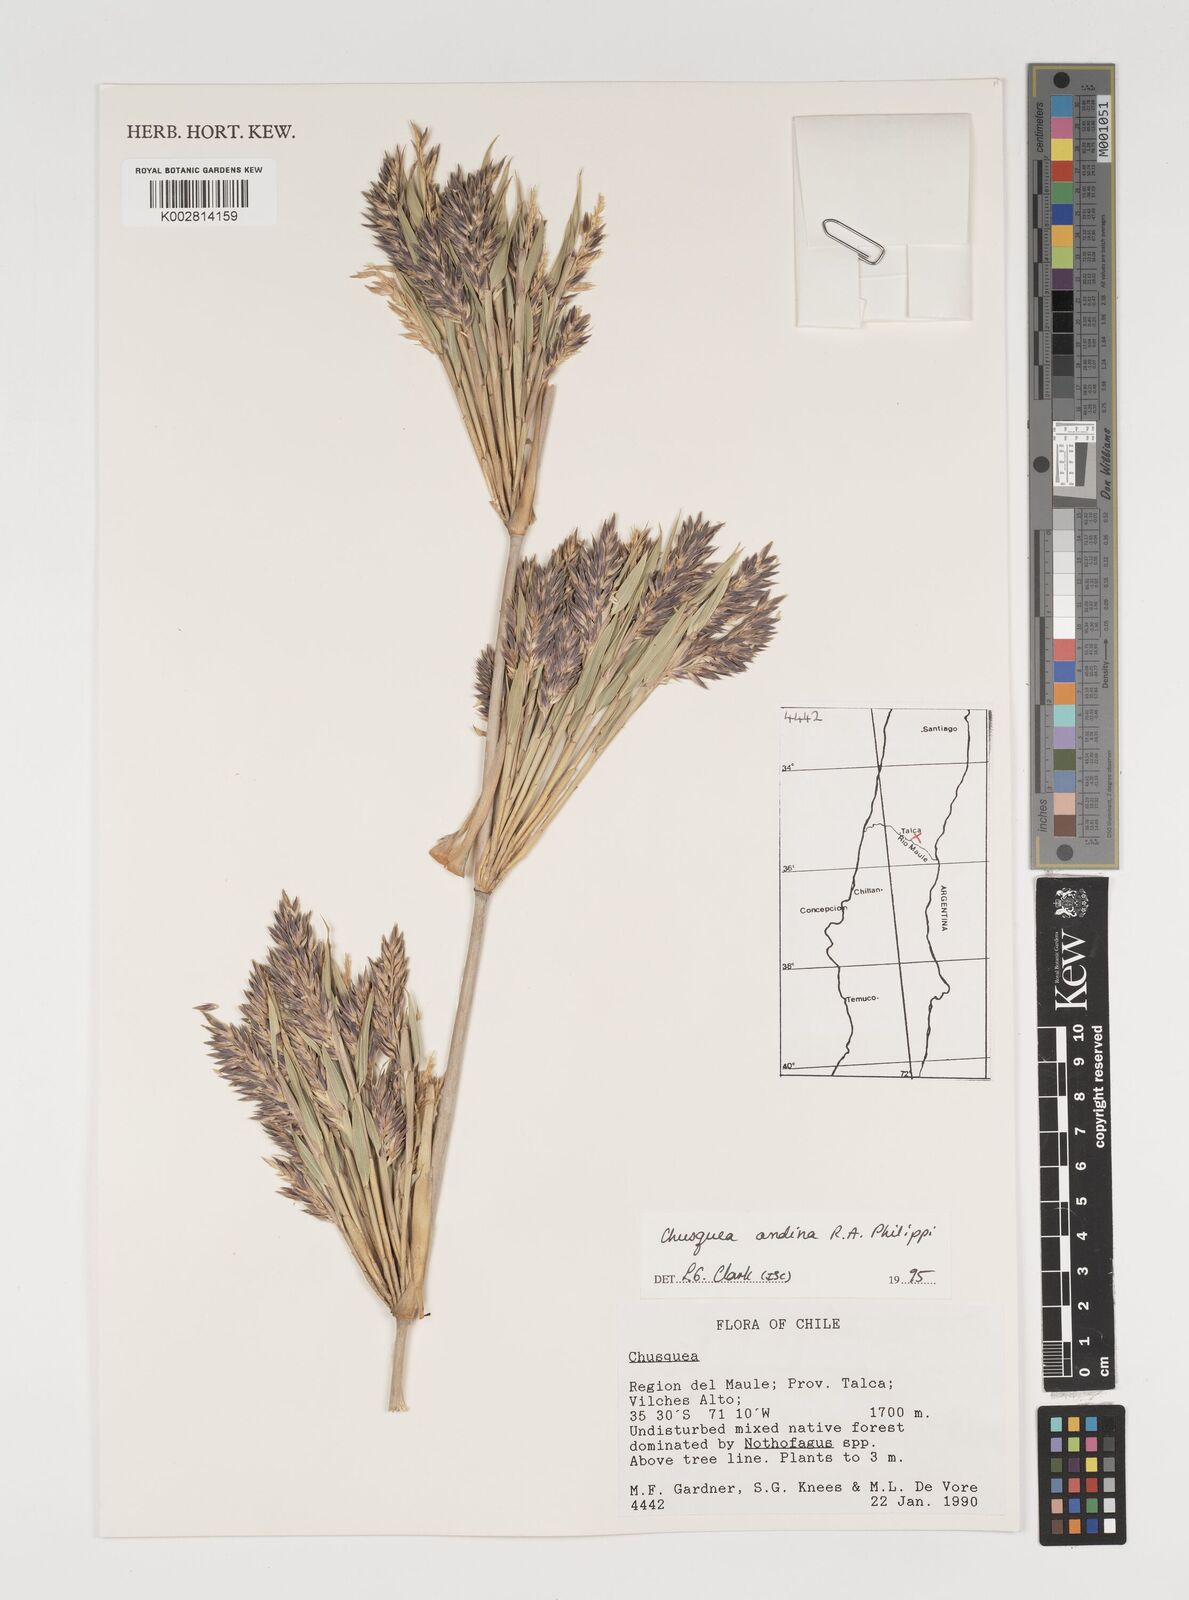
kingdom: Plantae
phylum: Tracheophyta
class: Liliopsida
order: Poales
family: Poaceae
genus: Chusquea
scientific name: Chusquea andina
